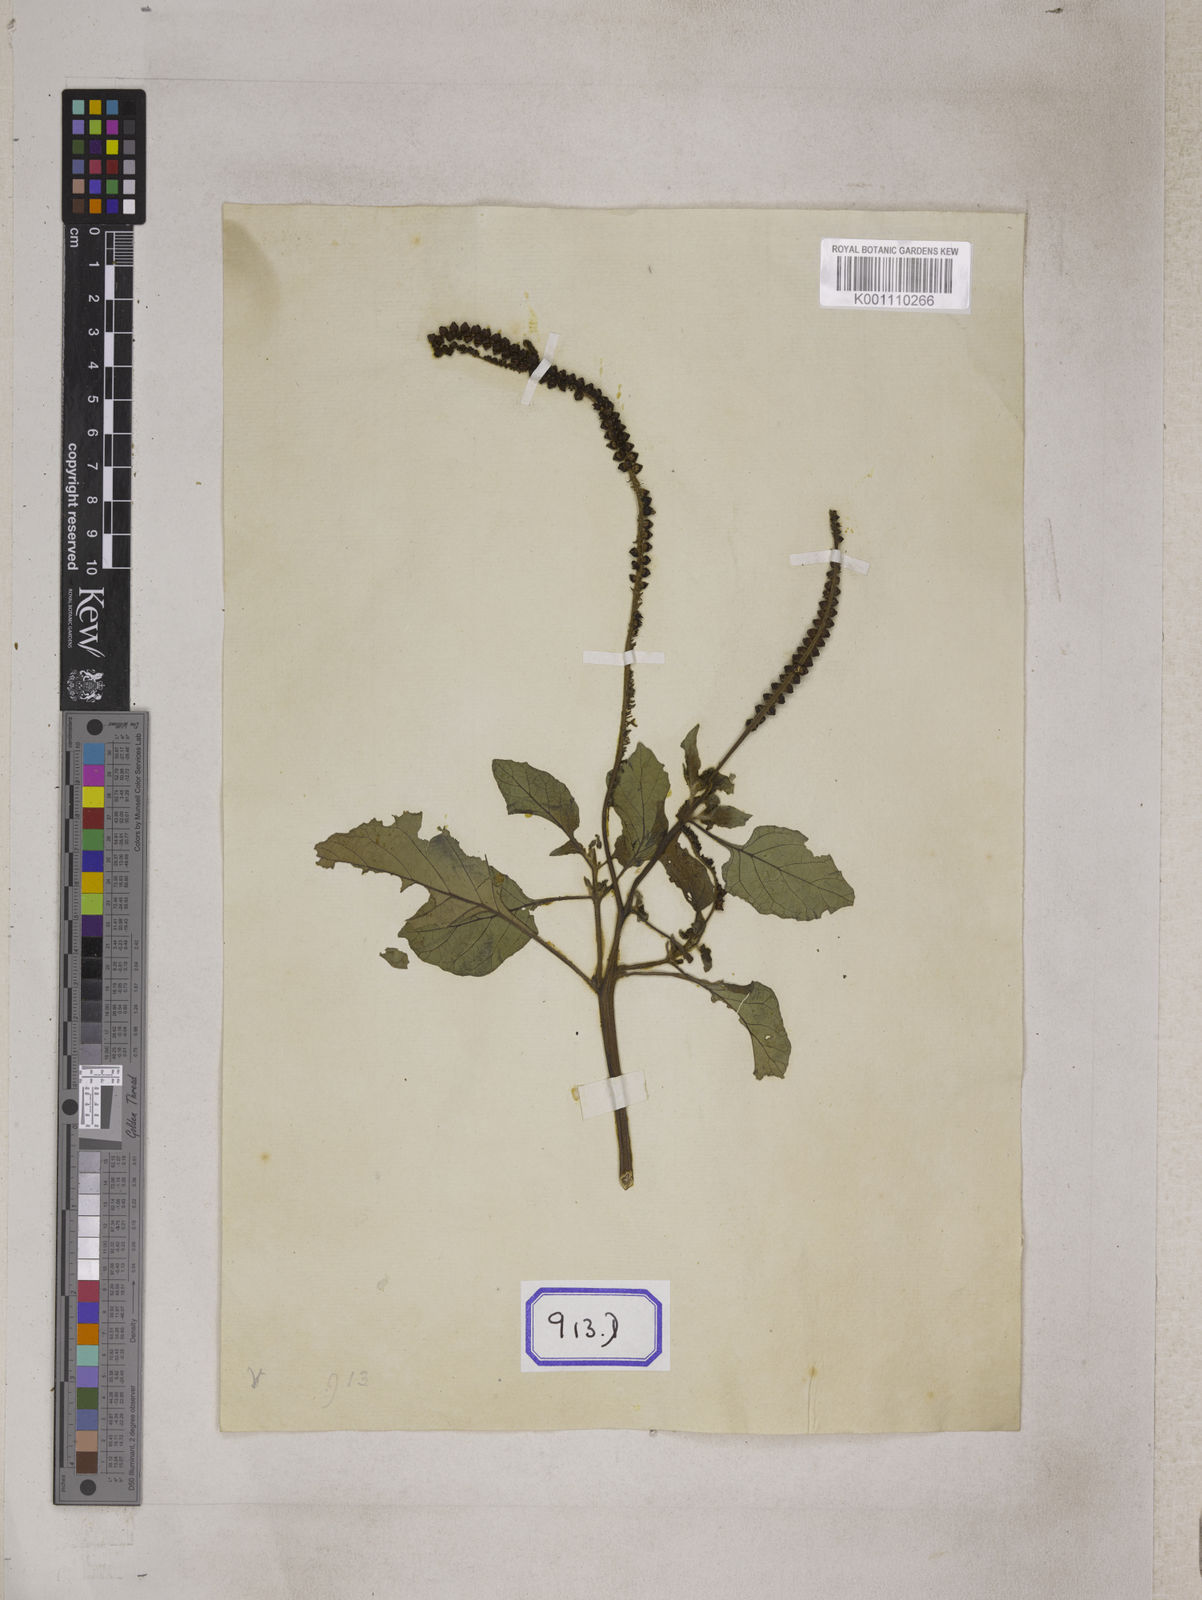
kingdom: Plantae
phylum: Tracheophyta
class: Magnoliopsida
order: Boraginales
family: Heliotropiaceae
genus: Heliotropium
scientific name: Heliotropium indicum
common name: Indian heliotrope
